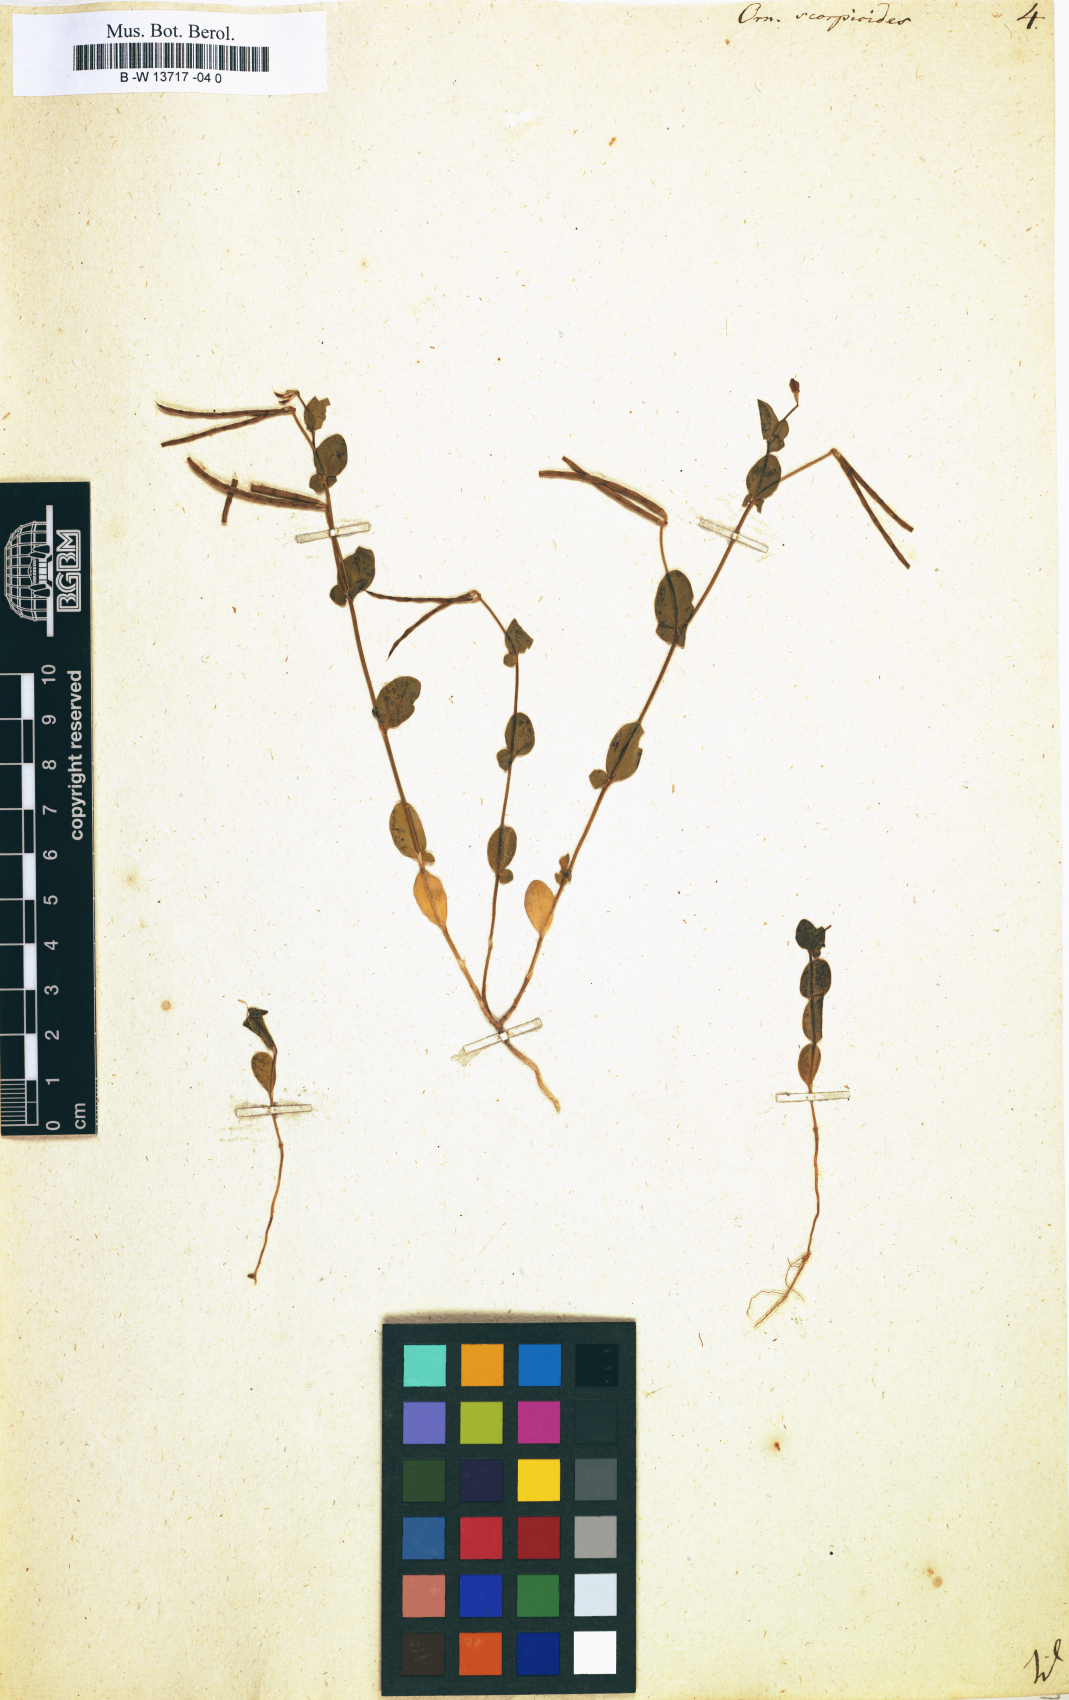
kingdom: Plantae
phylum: Tracheophyta
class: Magnoliopsida
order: Fabales
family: Fabaceae
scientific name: Fabaceae
